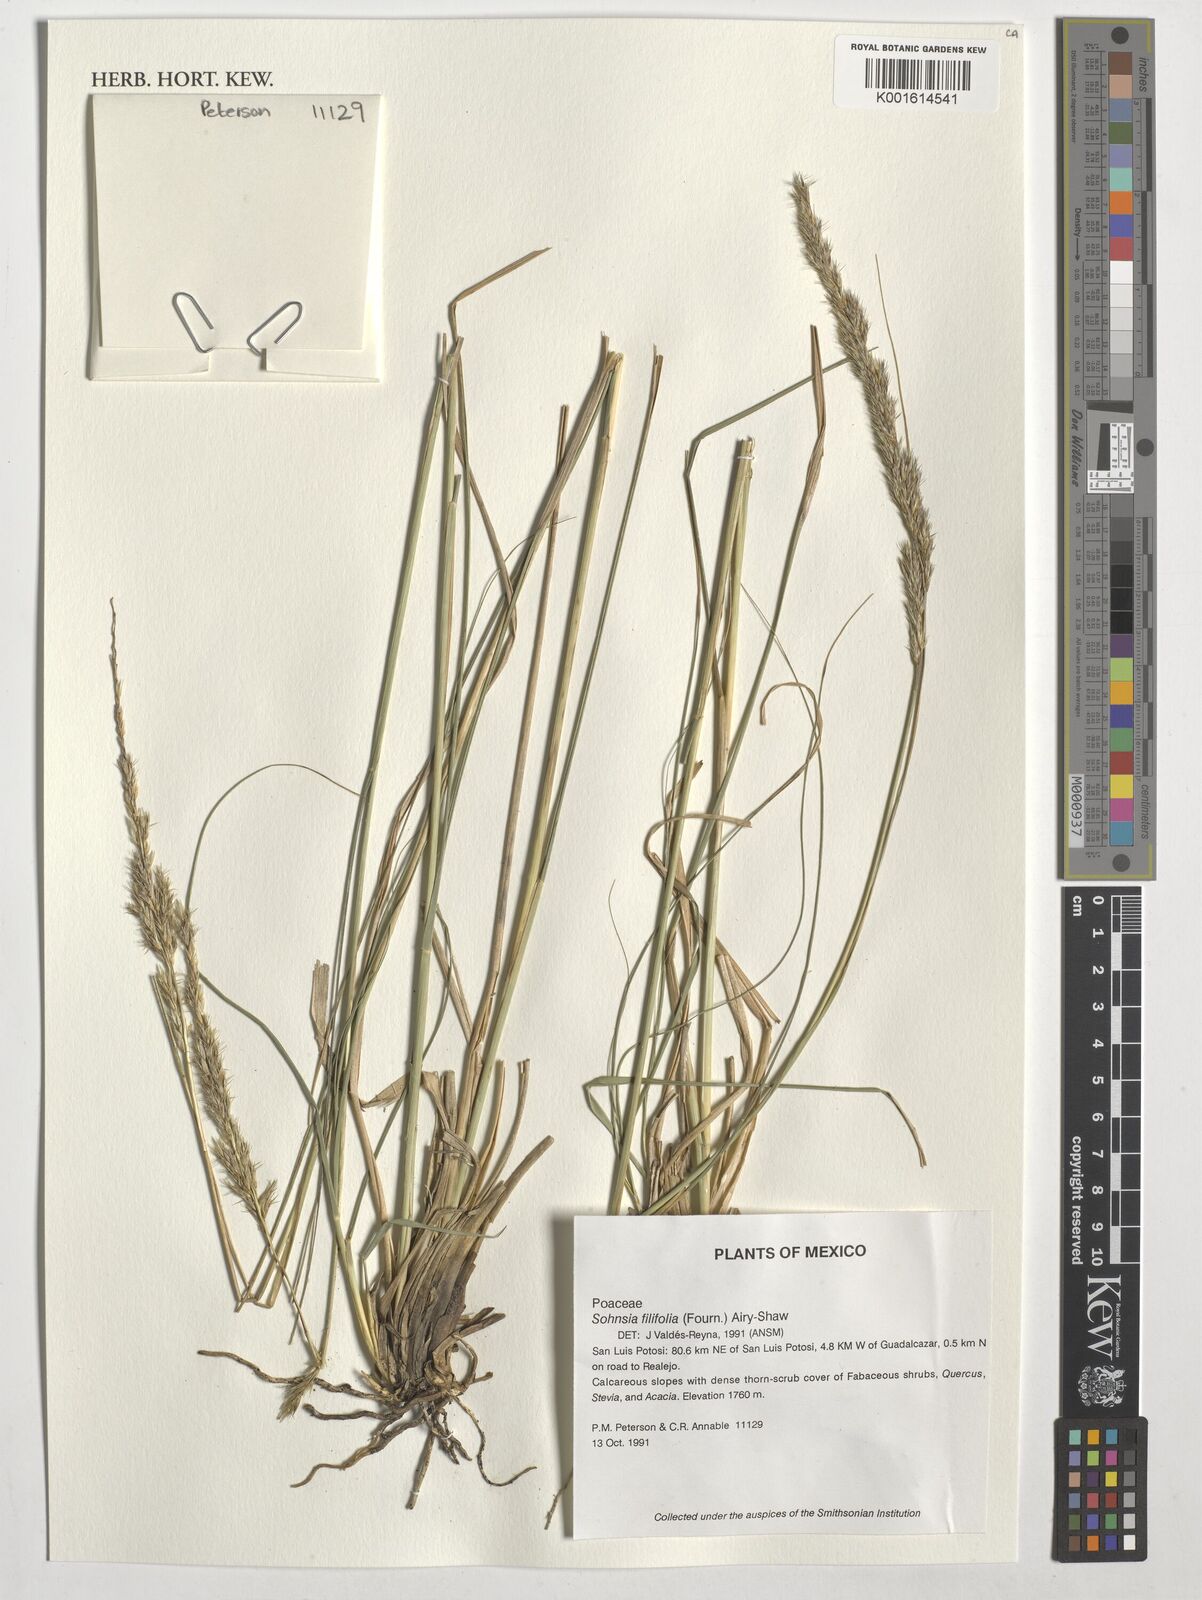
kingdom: Plantae
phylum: Tracheophyta
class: Liliopsida
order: Poales
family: Poaceae
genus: Sohnsia
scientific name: Sohnsia filifolia
